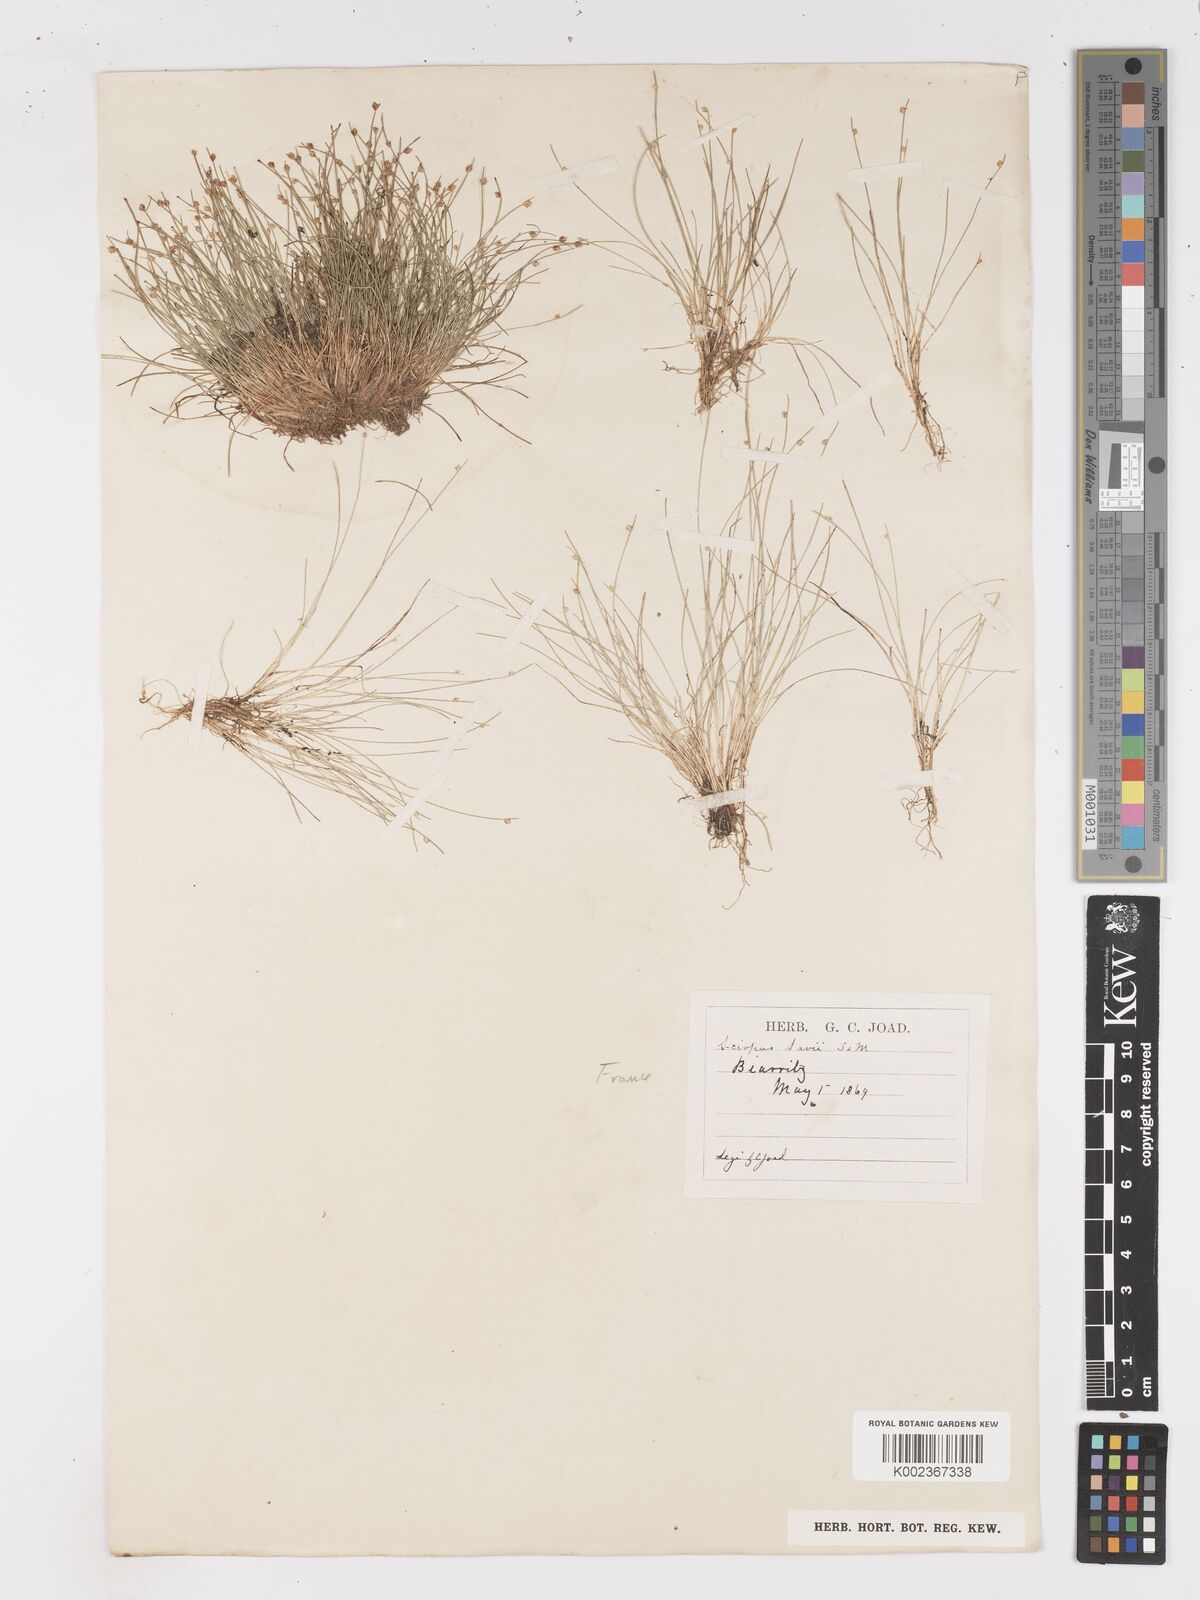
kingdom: Plantae
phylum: Tracheophyta
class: Liliopsida
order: Poales
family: Cyperaceae
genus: Isolepis
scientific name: Isolepis cernua
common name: Slender club-rush
